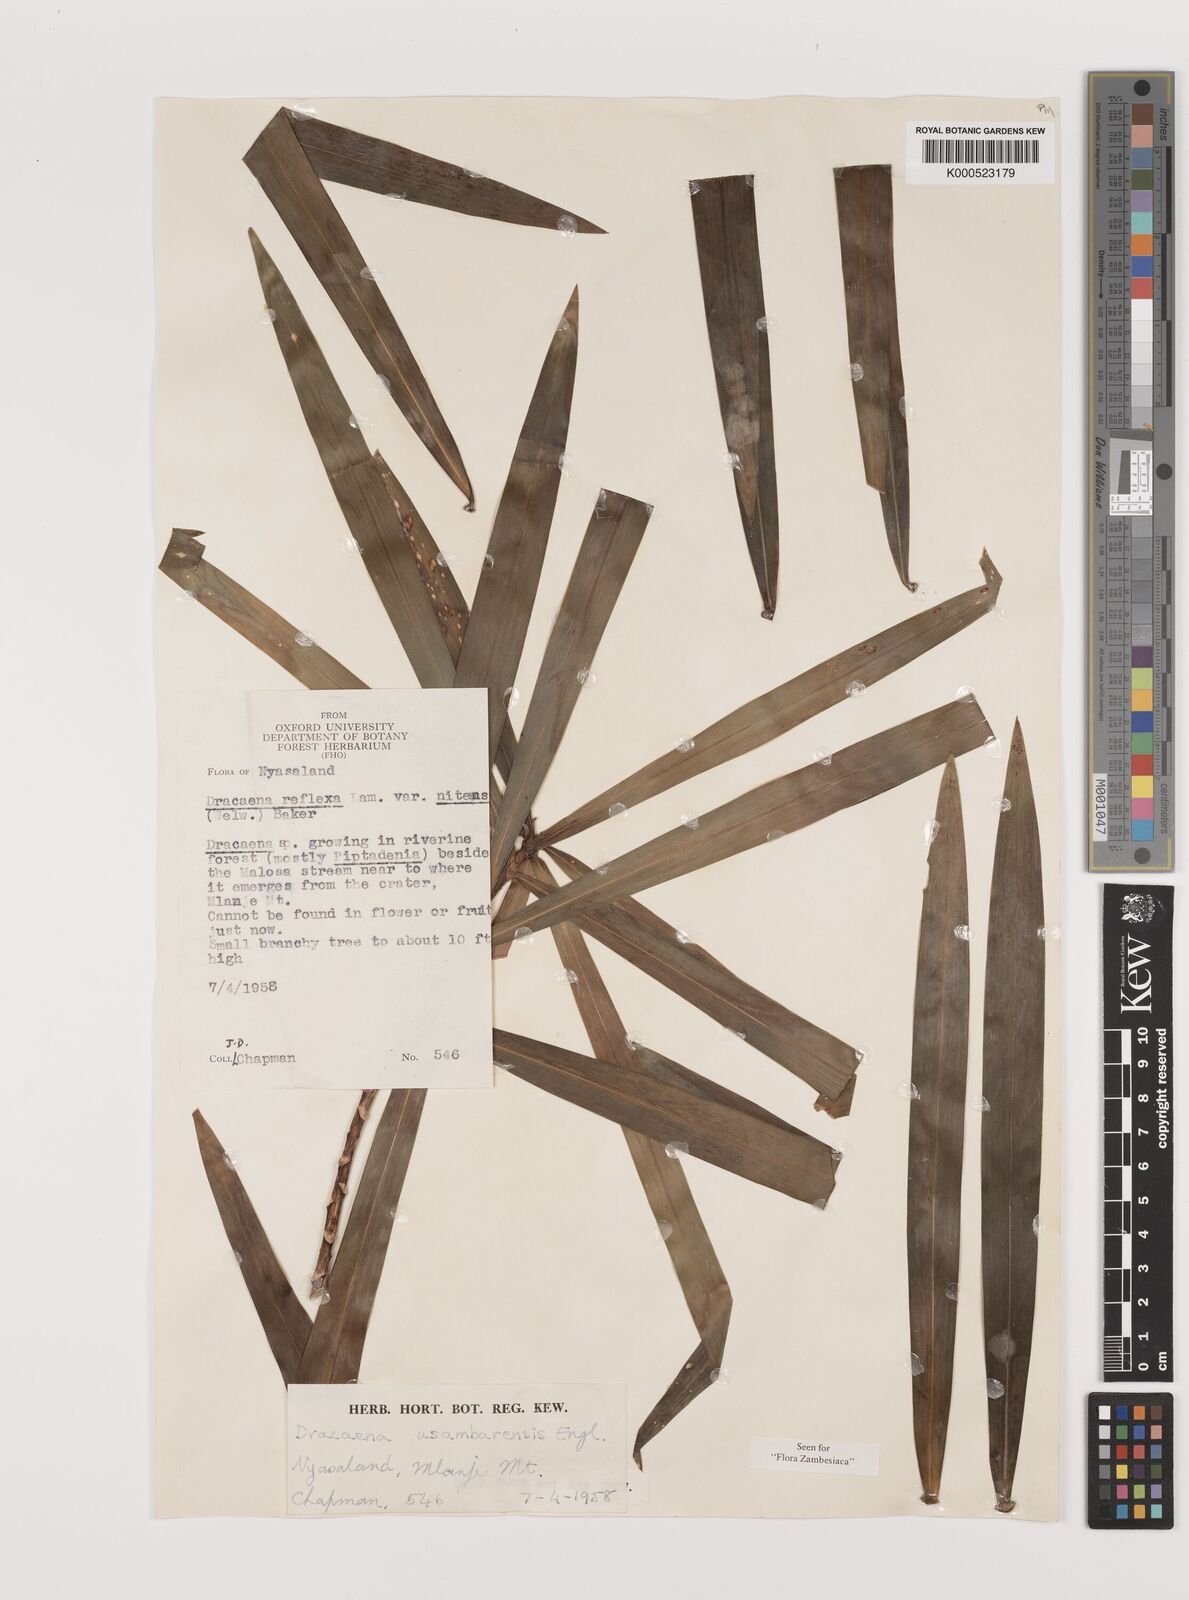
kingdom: Plantae
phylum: Tracheophyta
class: Liliopsida
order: Asparagales
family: Asparagaceae
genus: Dracaena
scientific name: Dracaena usambarensis
